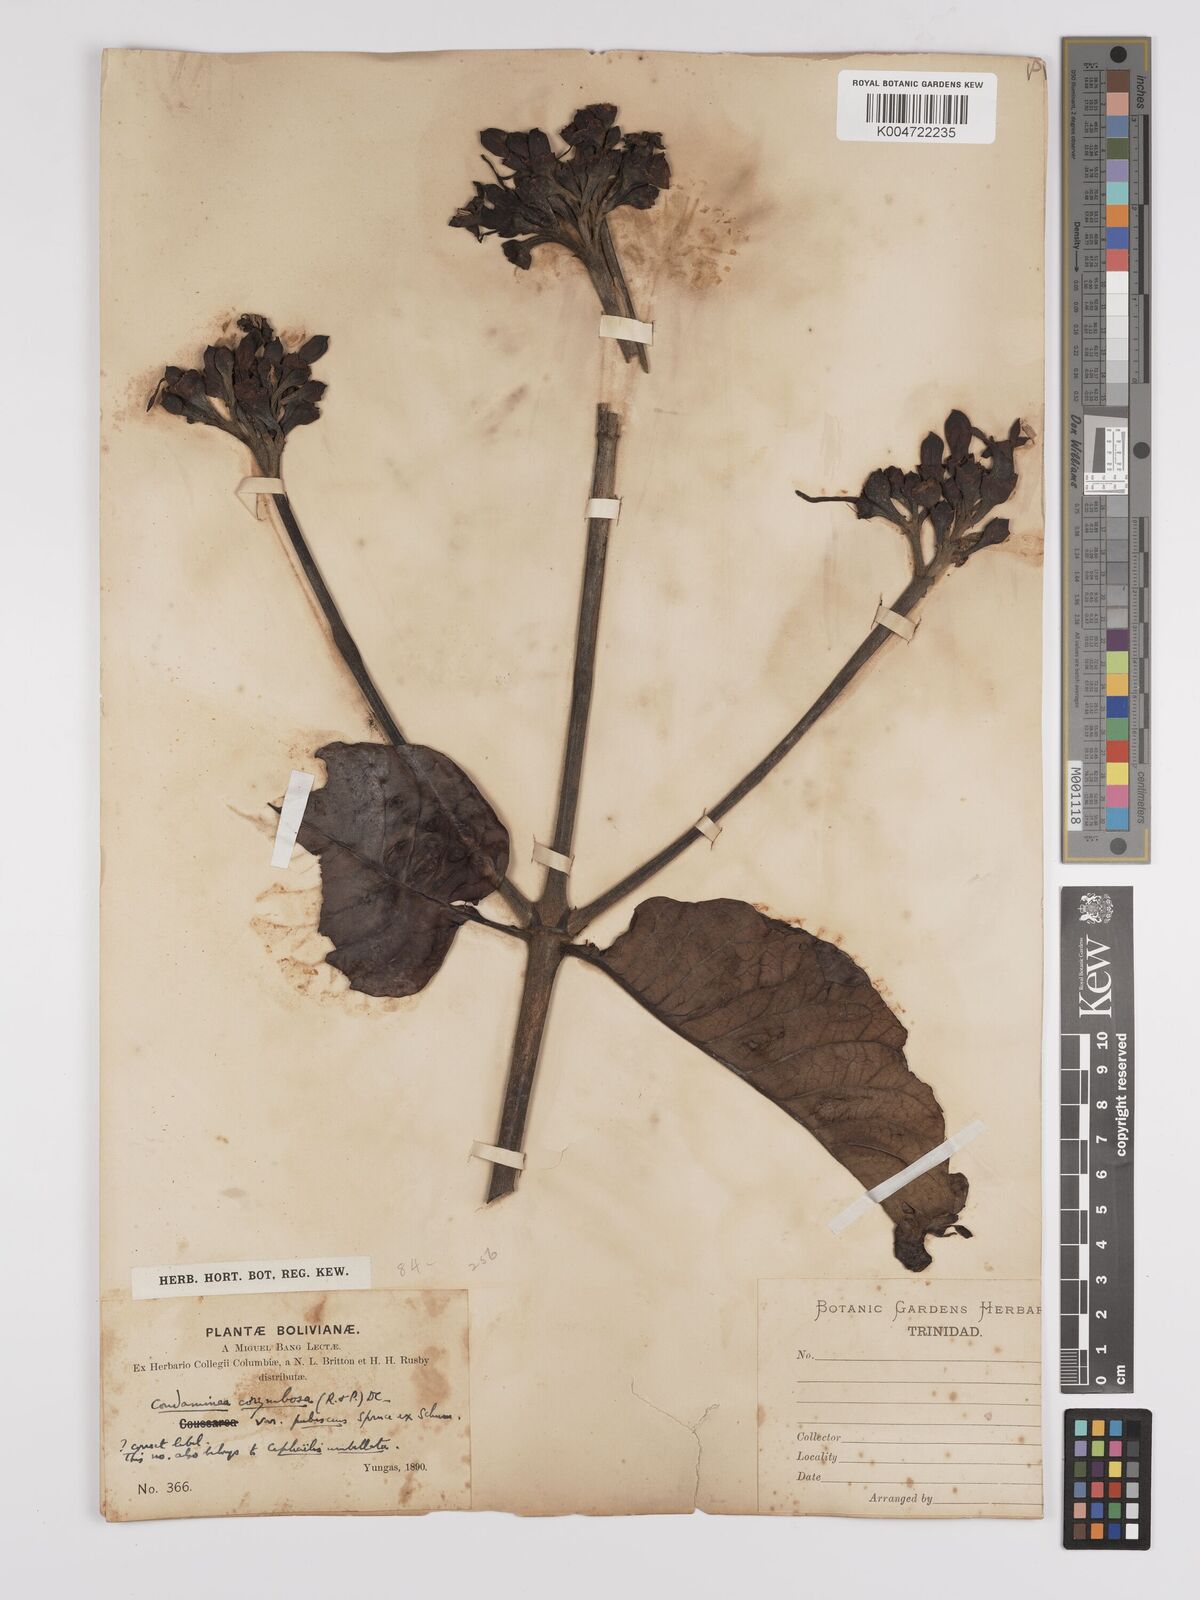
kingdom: Plantae
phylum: Tracheophyta
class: Magnoliopsida
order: Gentianales
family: Rubiaceae
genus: Condaminea
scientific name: Condaminea corymbosa
